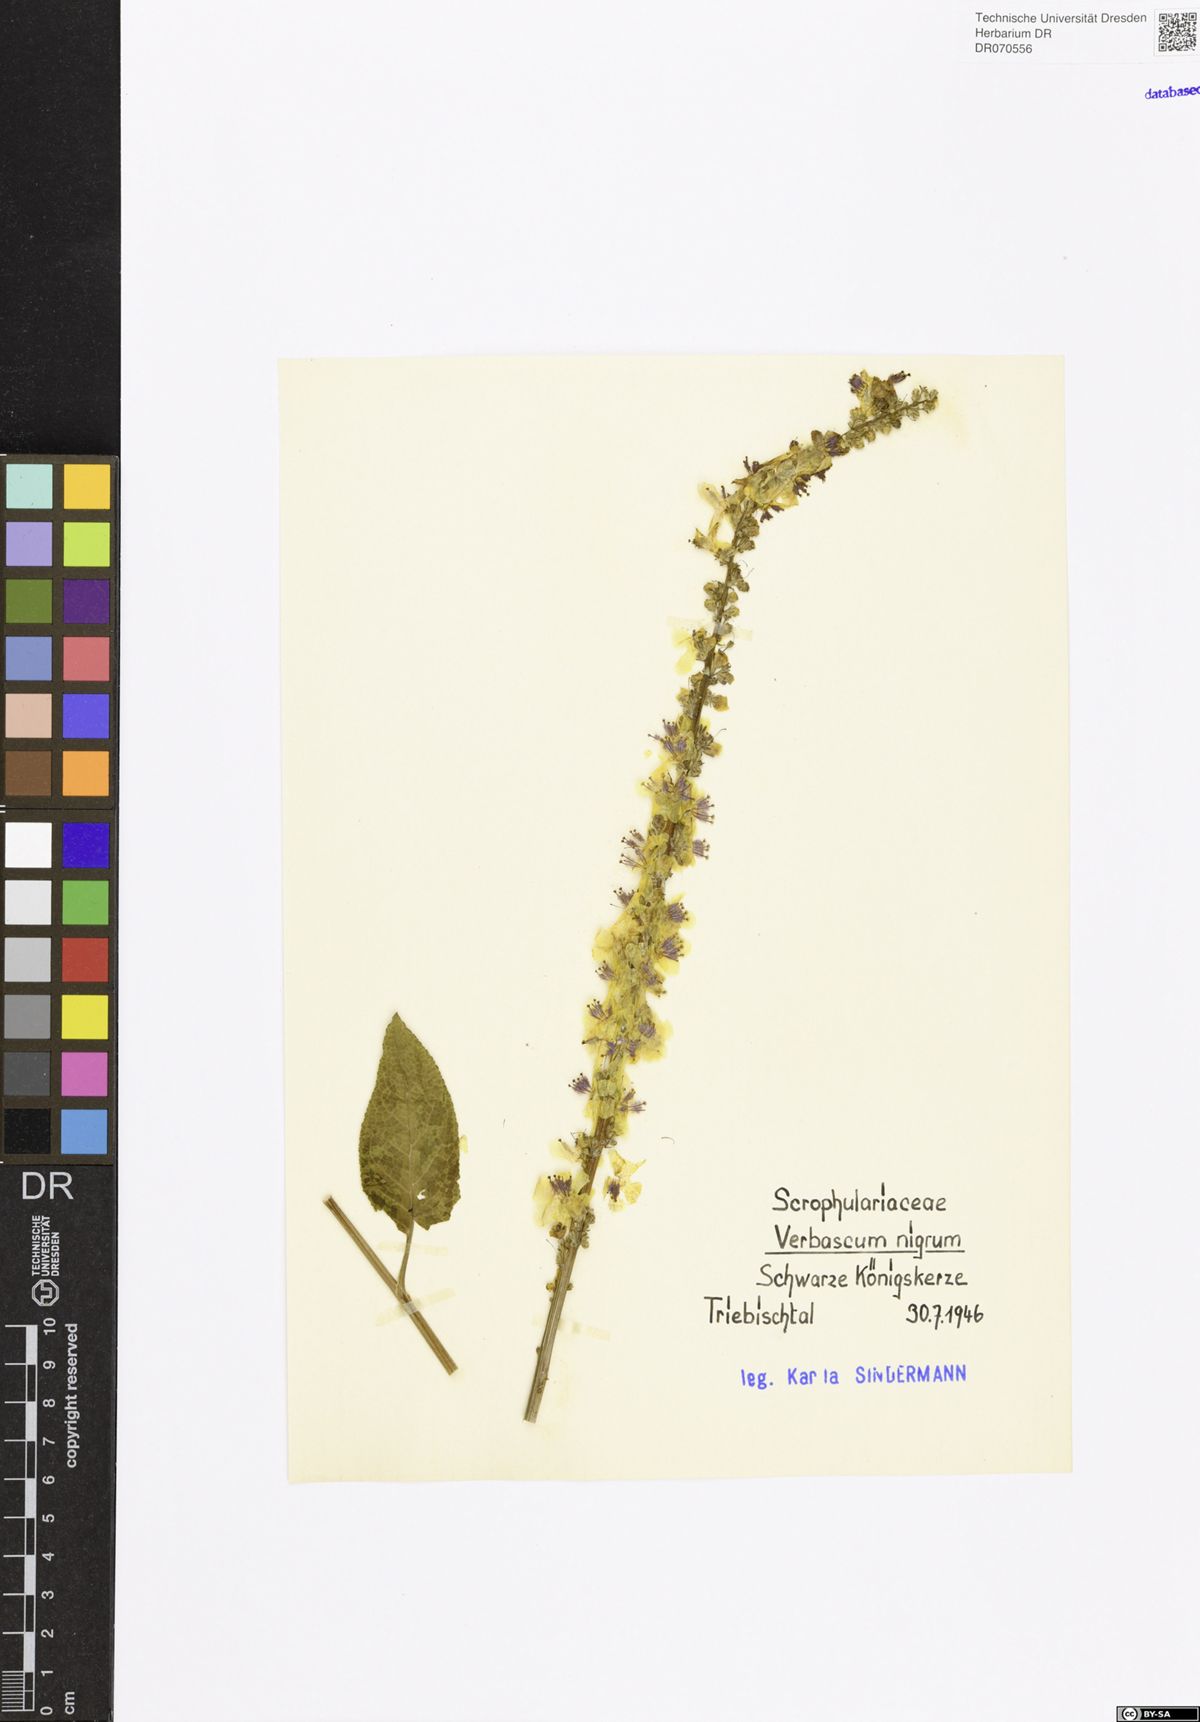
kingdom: Plantae
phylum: Tracheophyta
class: Magnoliopsida
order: Lamiales
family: Scrophulariaceae
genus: Verbascum
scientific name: Verbascum nigrum
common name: Dark mullein
